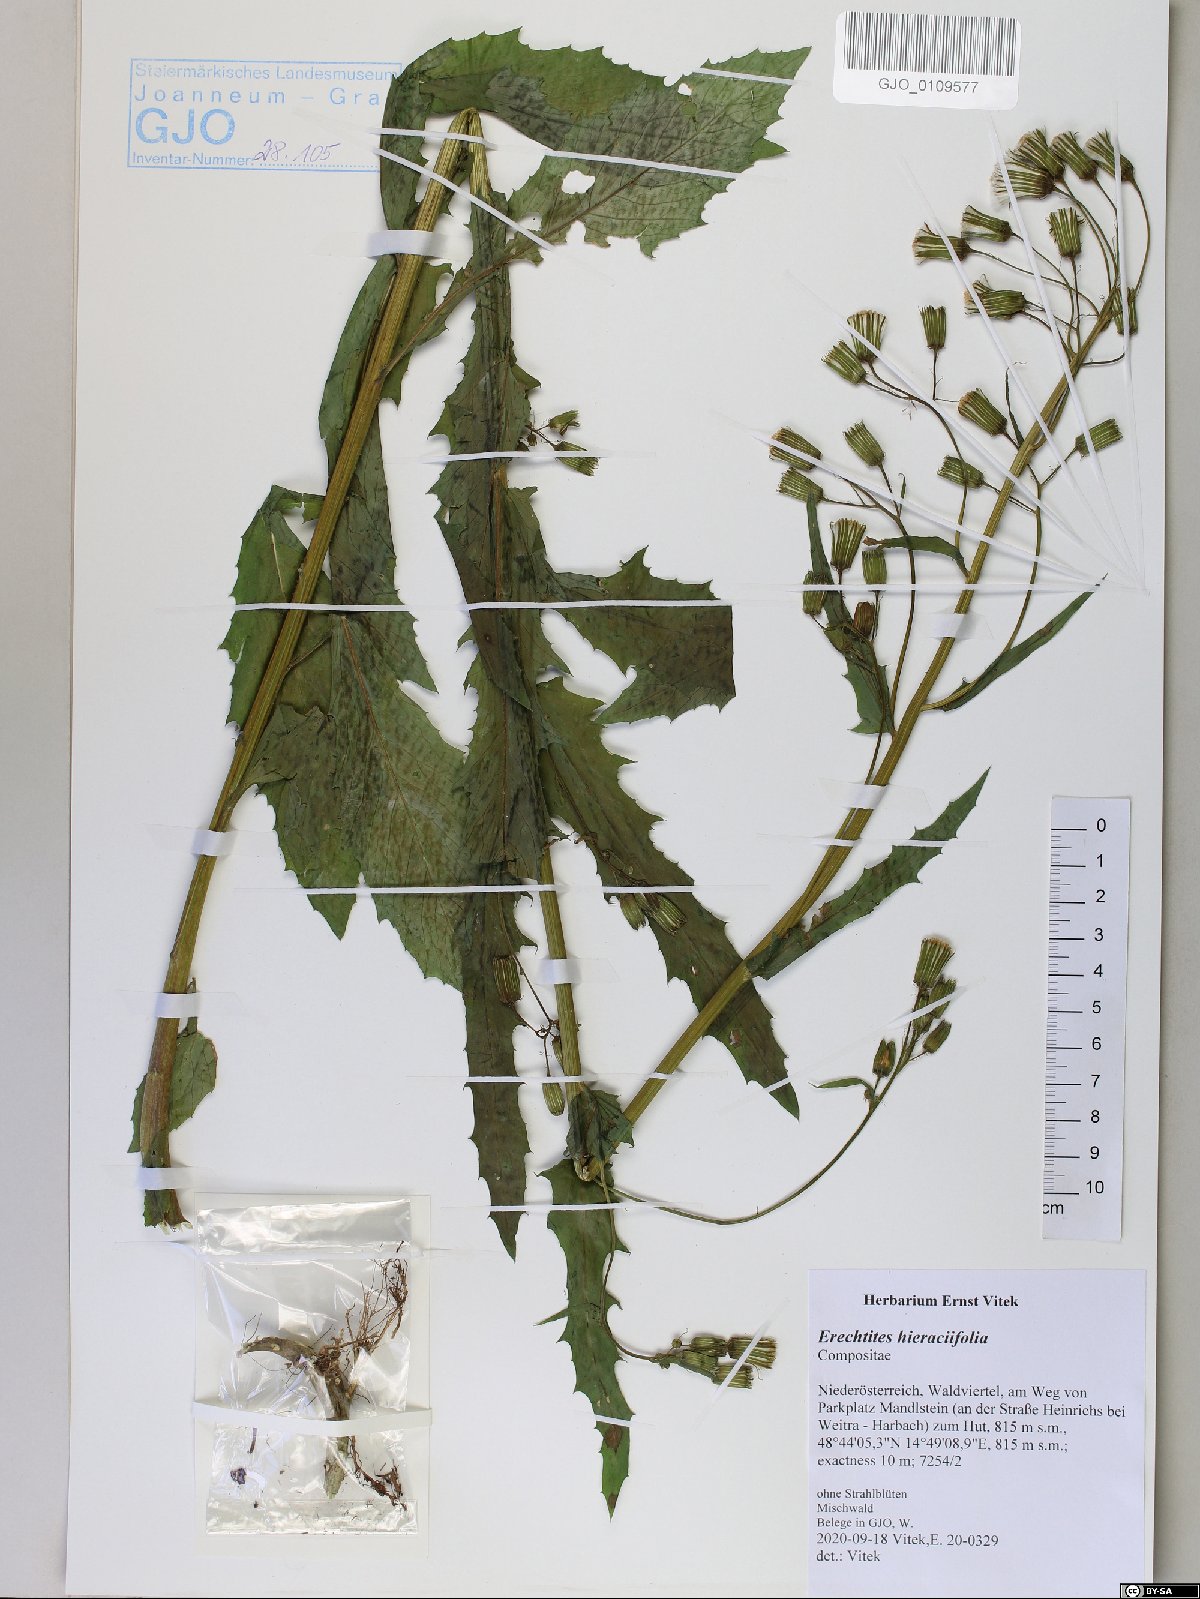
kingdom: Plantae
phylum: Tracheophyta
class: Magnoliopsida
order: Asterales
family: Asteraceae
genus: Erechtites
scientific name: Erechtites hieraciifolius
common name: American burnweed
